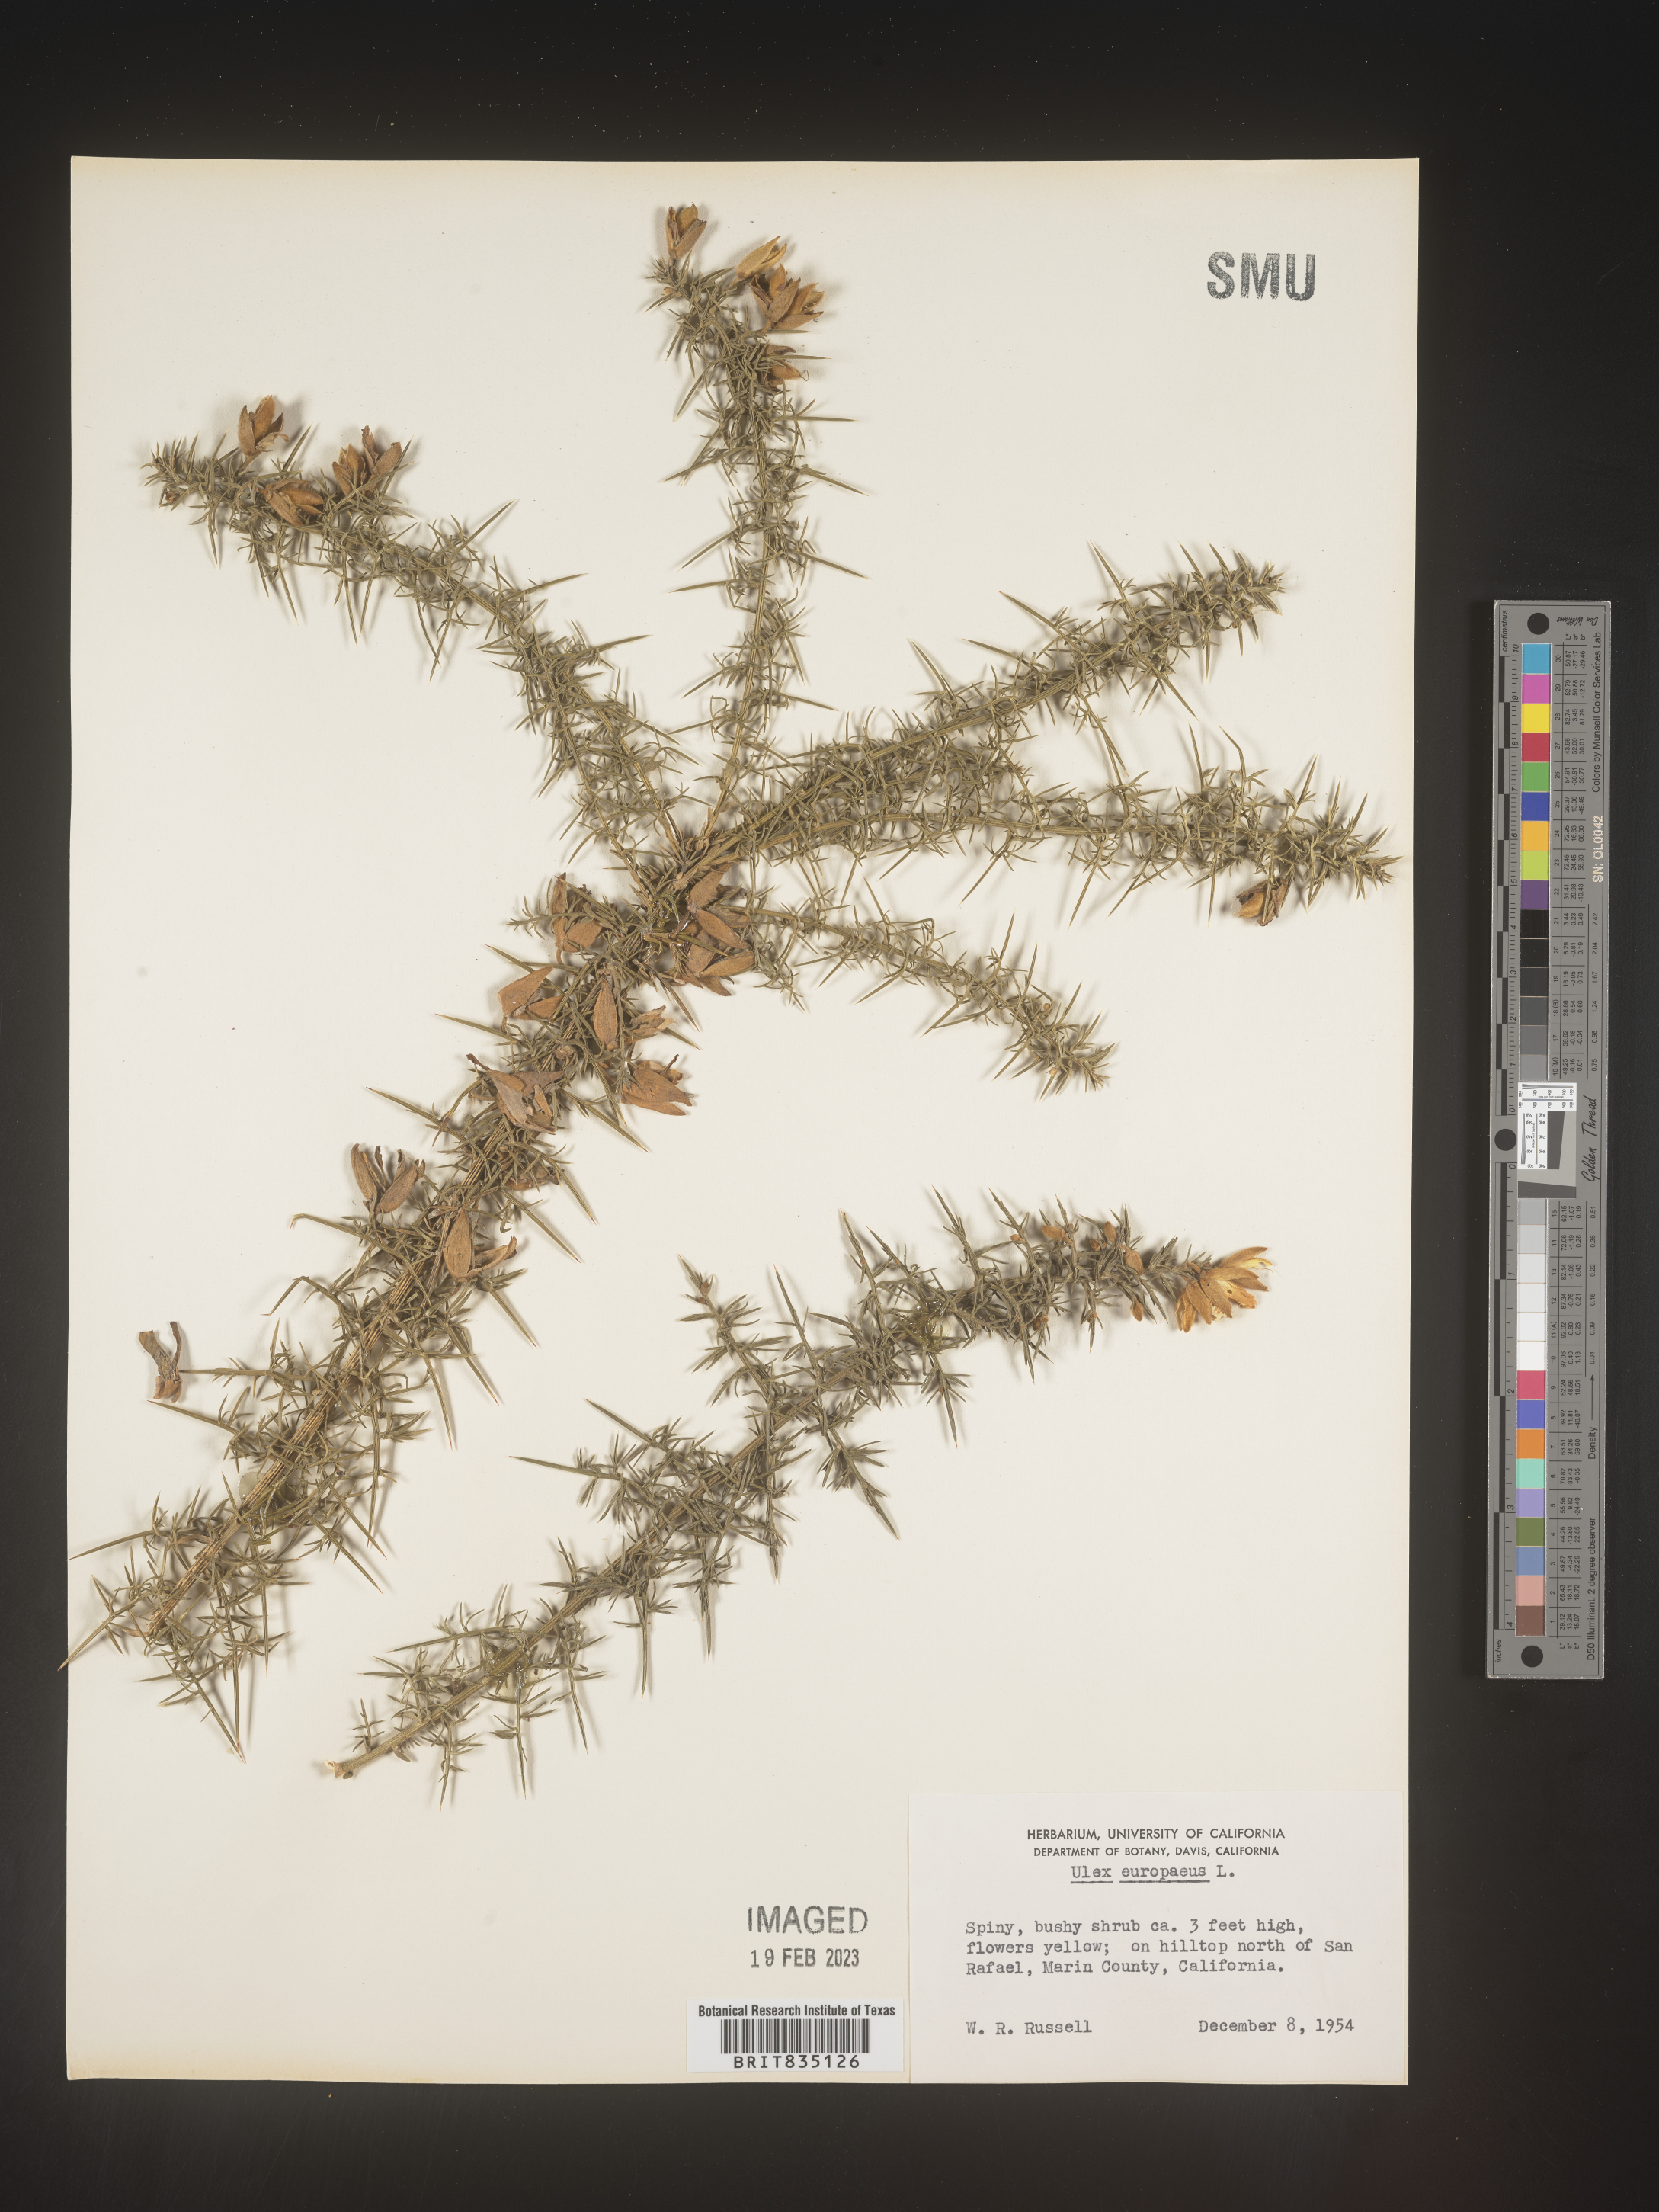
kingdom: Plantae
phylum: Tracheophyta
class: Magnoliopsida
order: Fabales
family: Fabaceae
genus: Ulex
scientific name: Ulex
